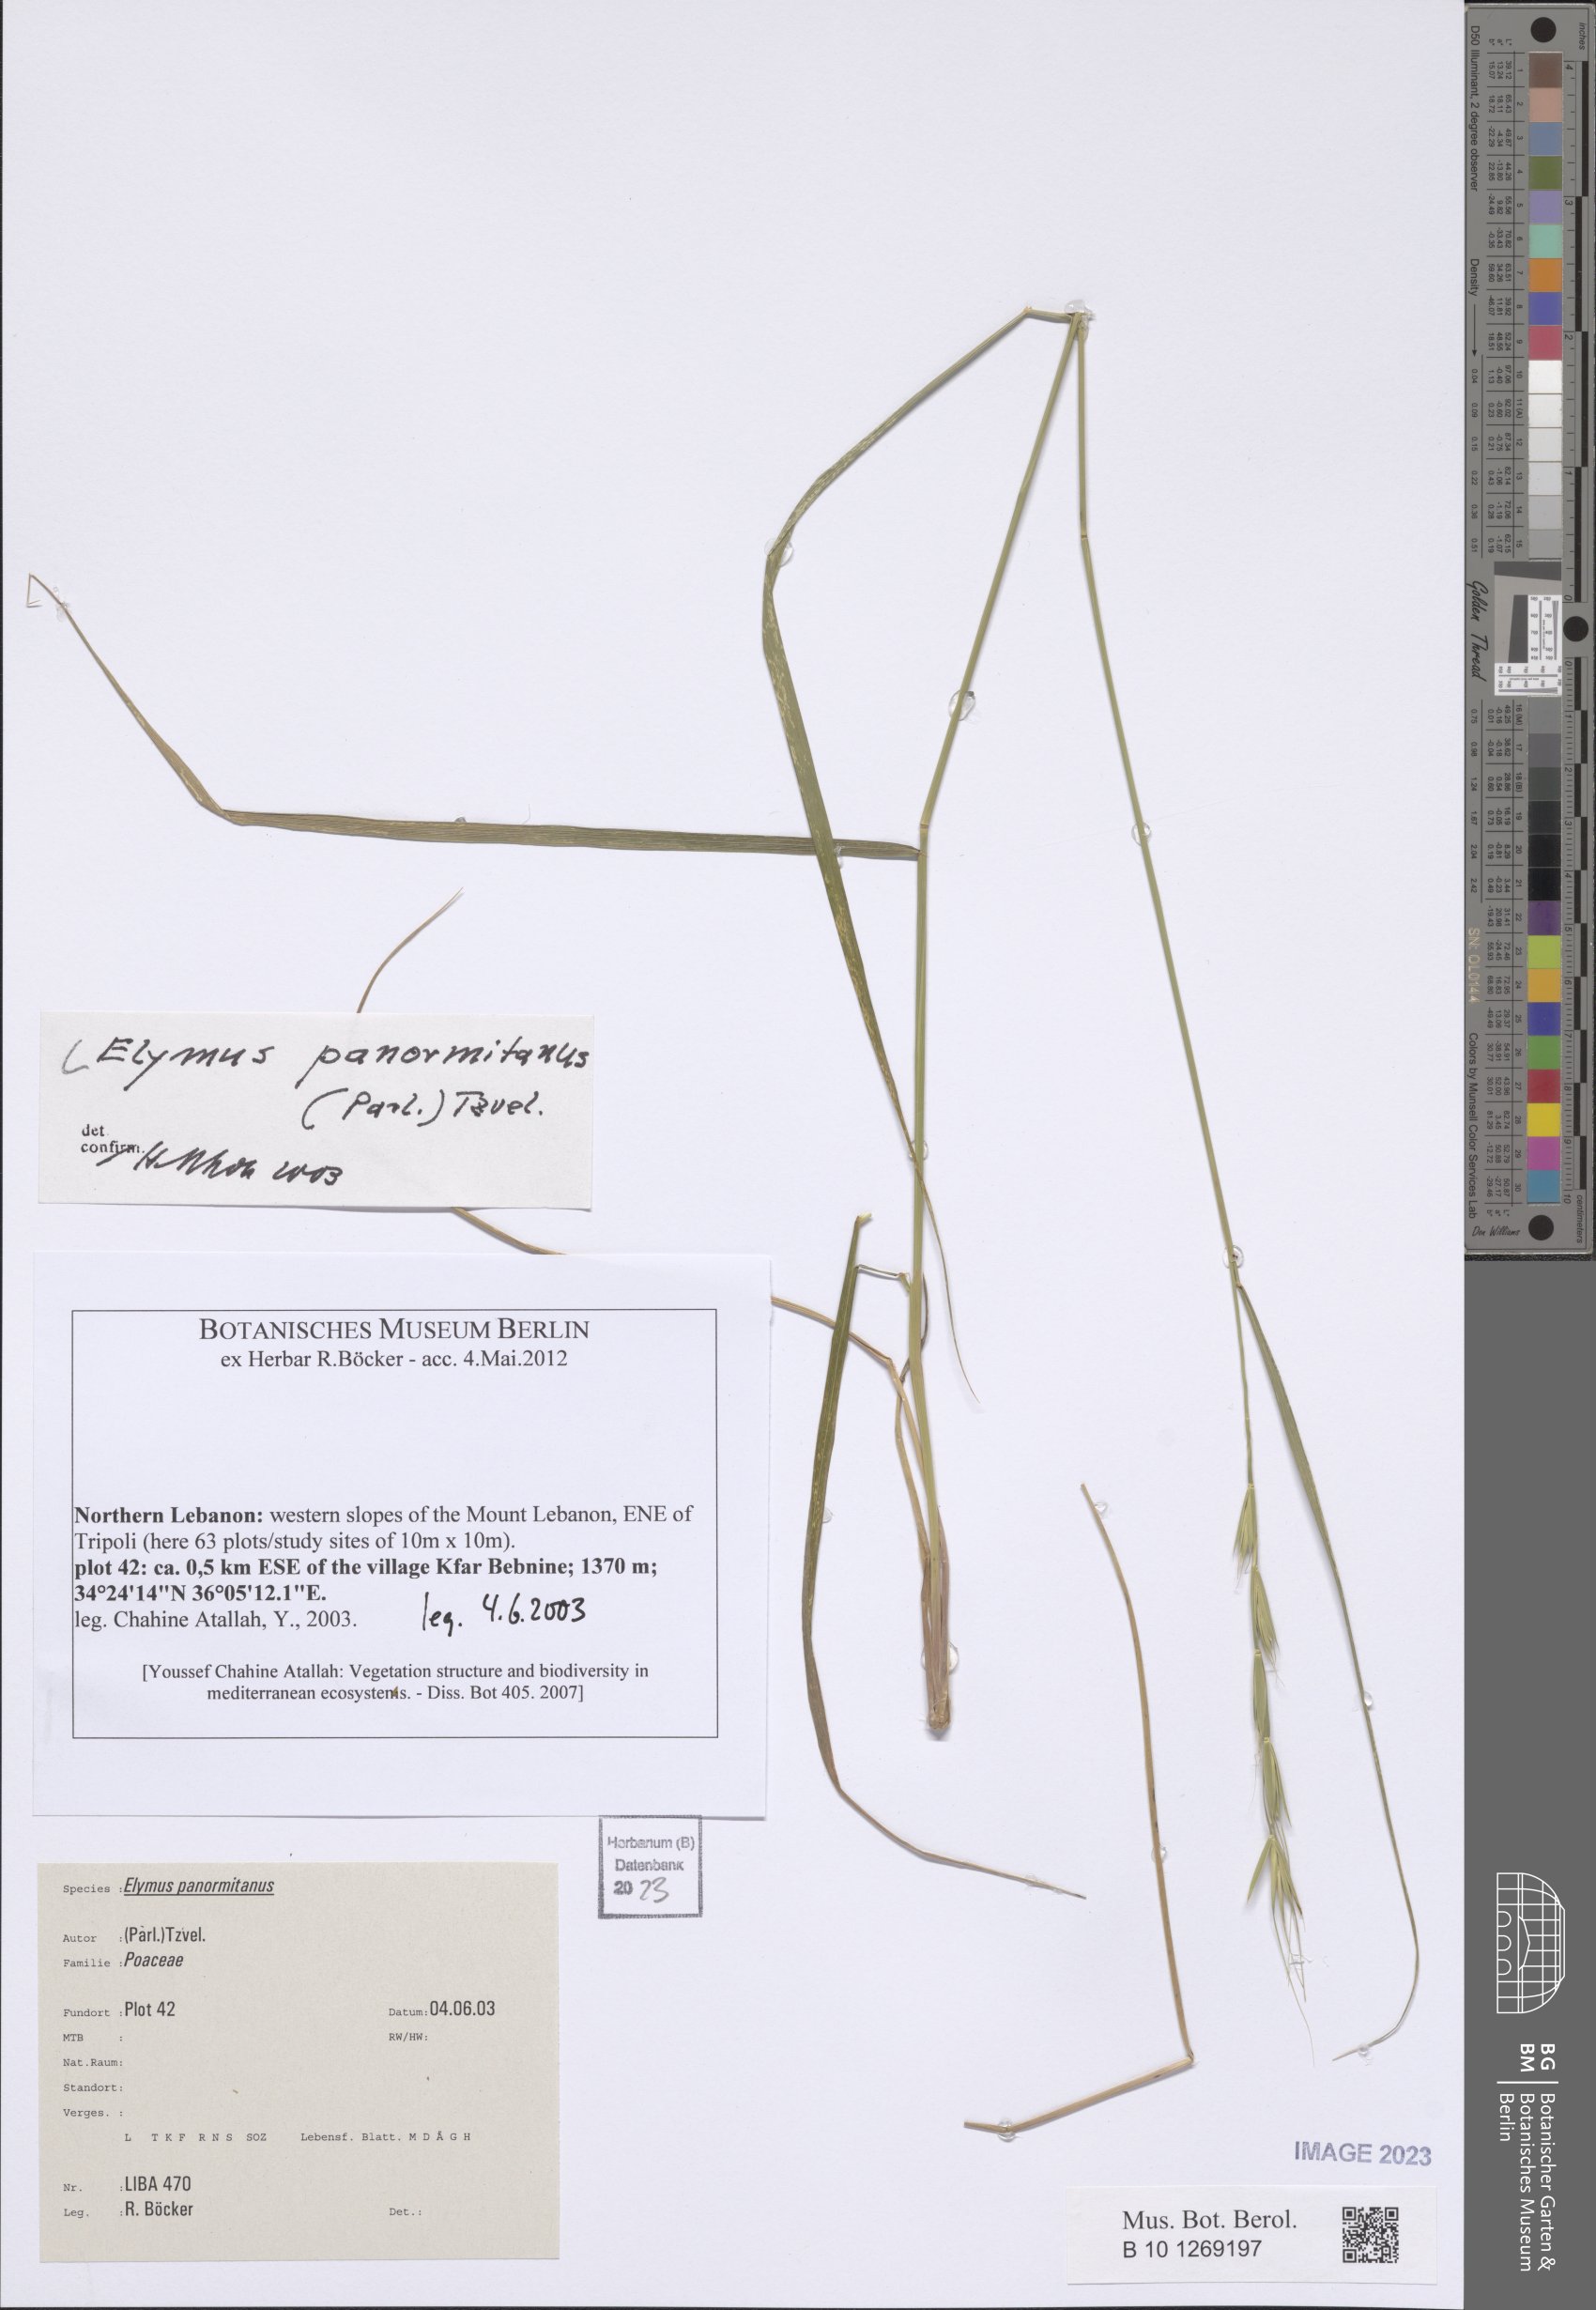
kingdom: Plantae
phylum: Tracheophyta
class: Liliopsida
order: Poales
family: Poaceae
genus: Elymus
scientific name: Elymus panormitanus
